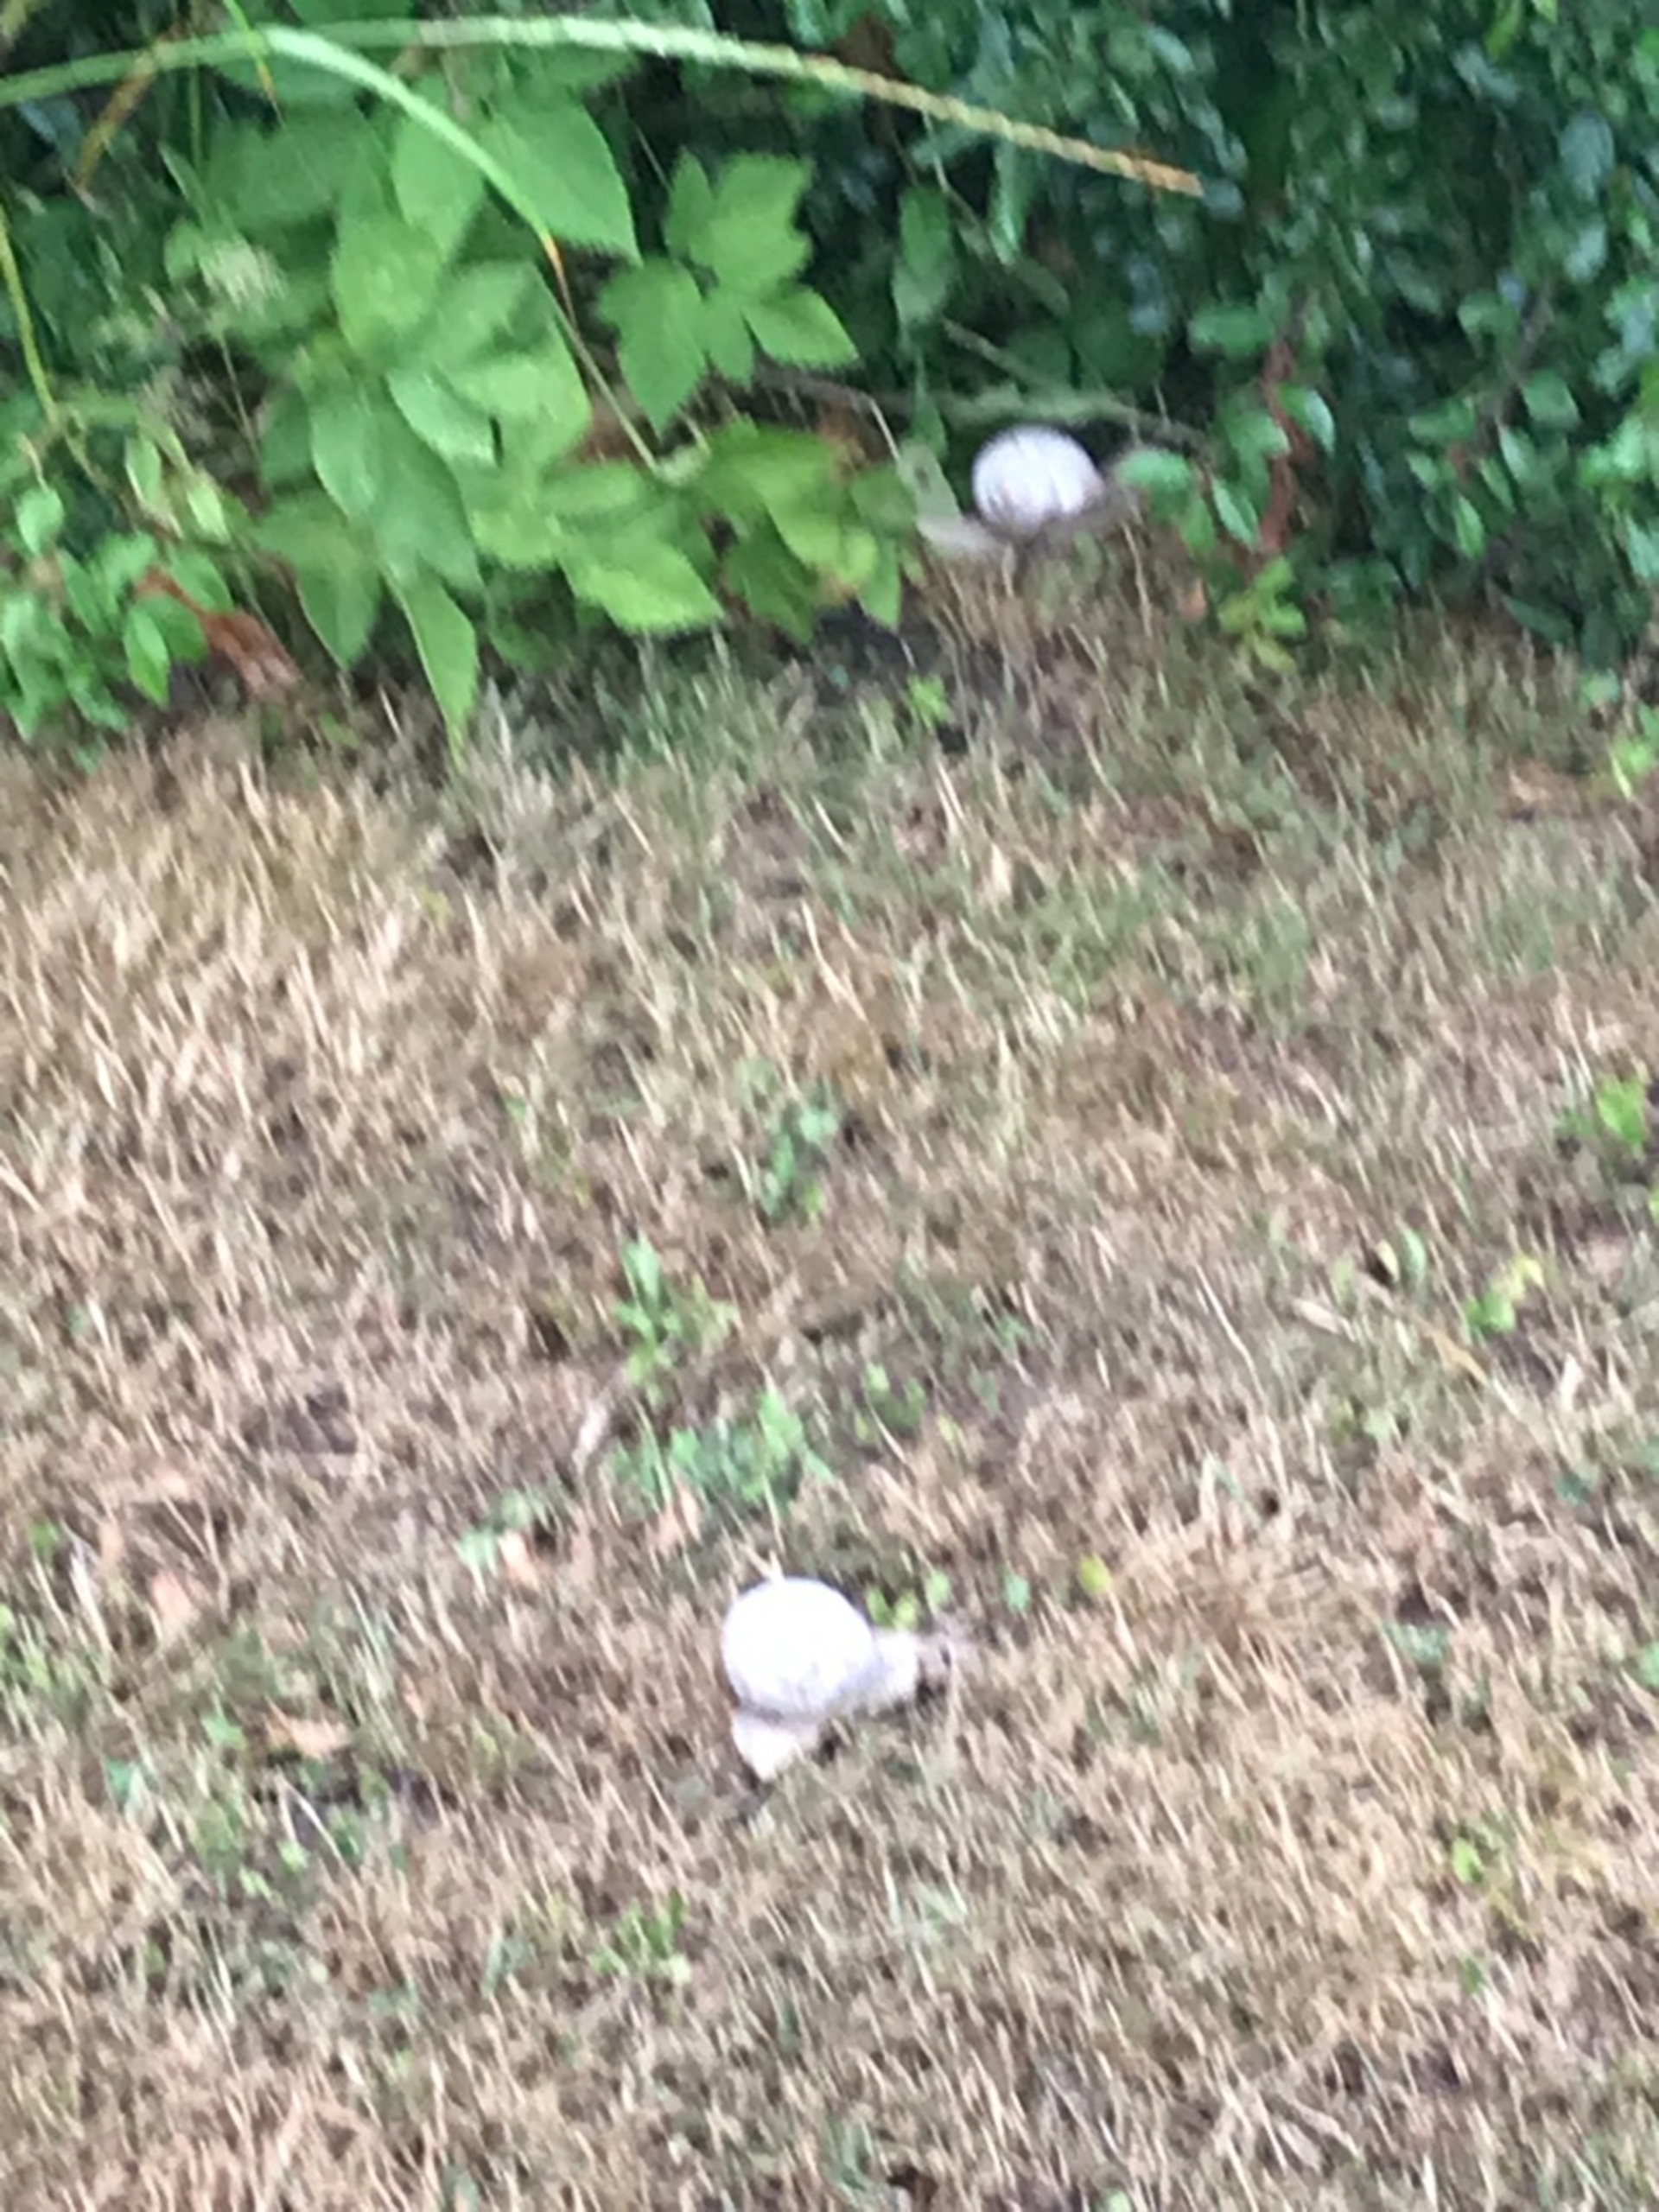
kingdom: Animalia
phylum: Mollusca
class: Gastropoda
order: Stylommatophora
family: Helicidae
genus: Helix
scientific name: Helix pomatia
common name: Vinbjergsnegl
